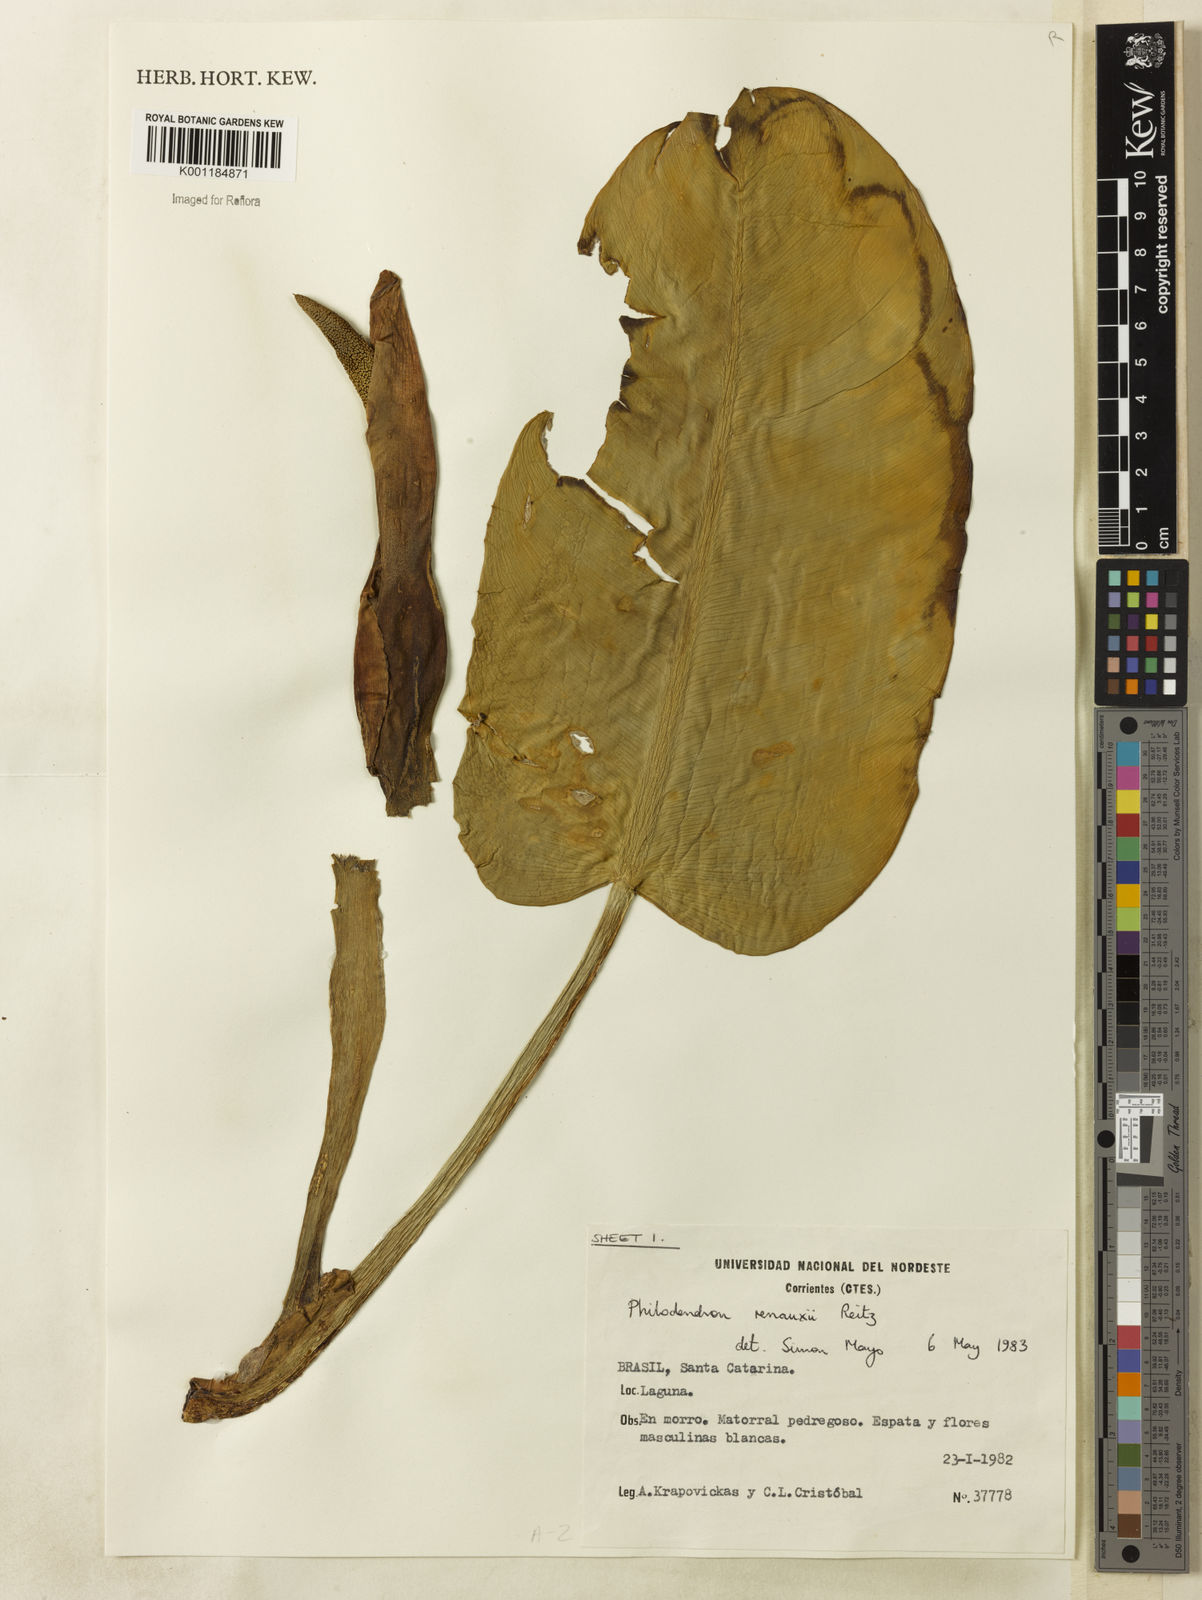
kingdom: Plantae
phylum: Tracheophyta
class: Liliopsida
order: Alismatales
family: Araceae
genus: Philodendron
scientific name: Philodendron renauxii
